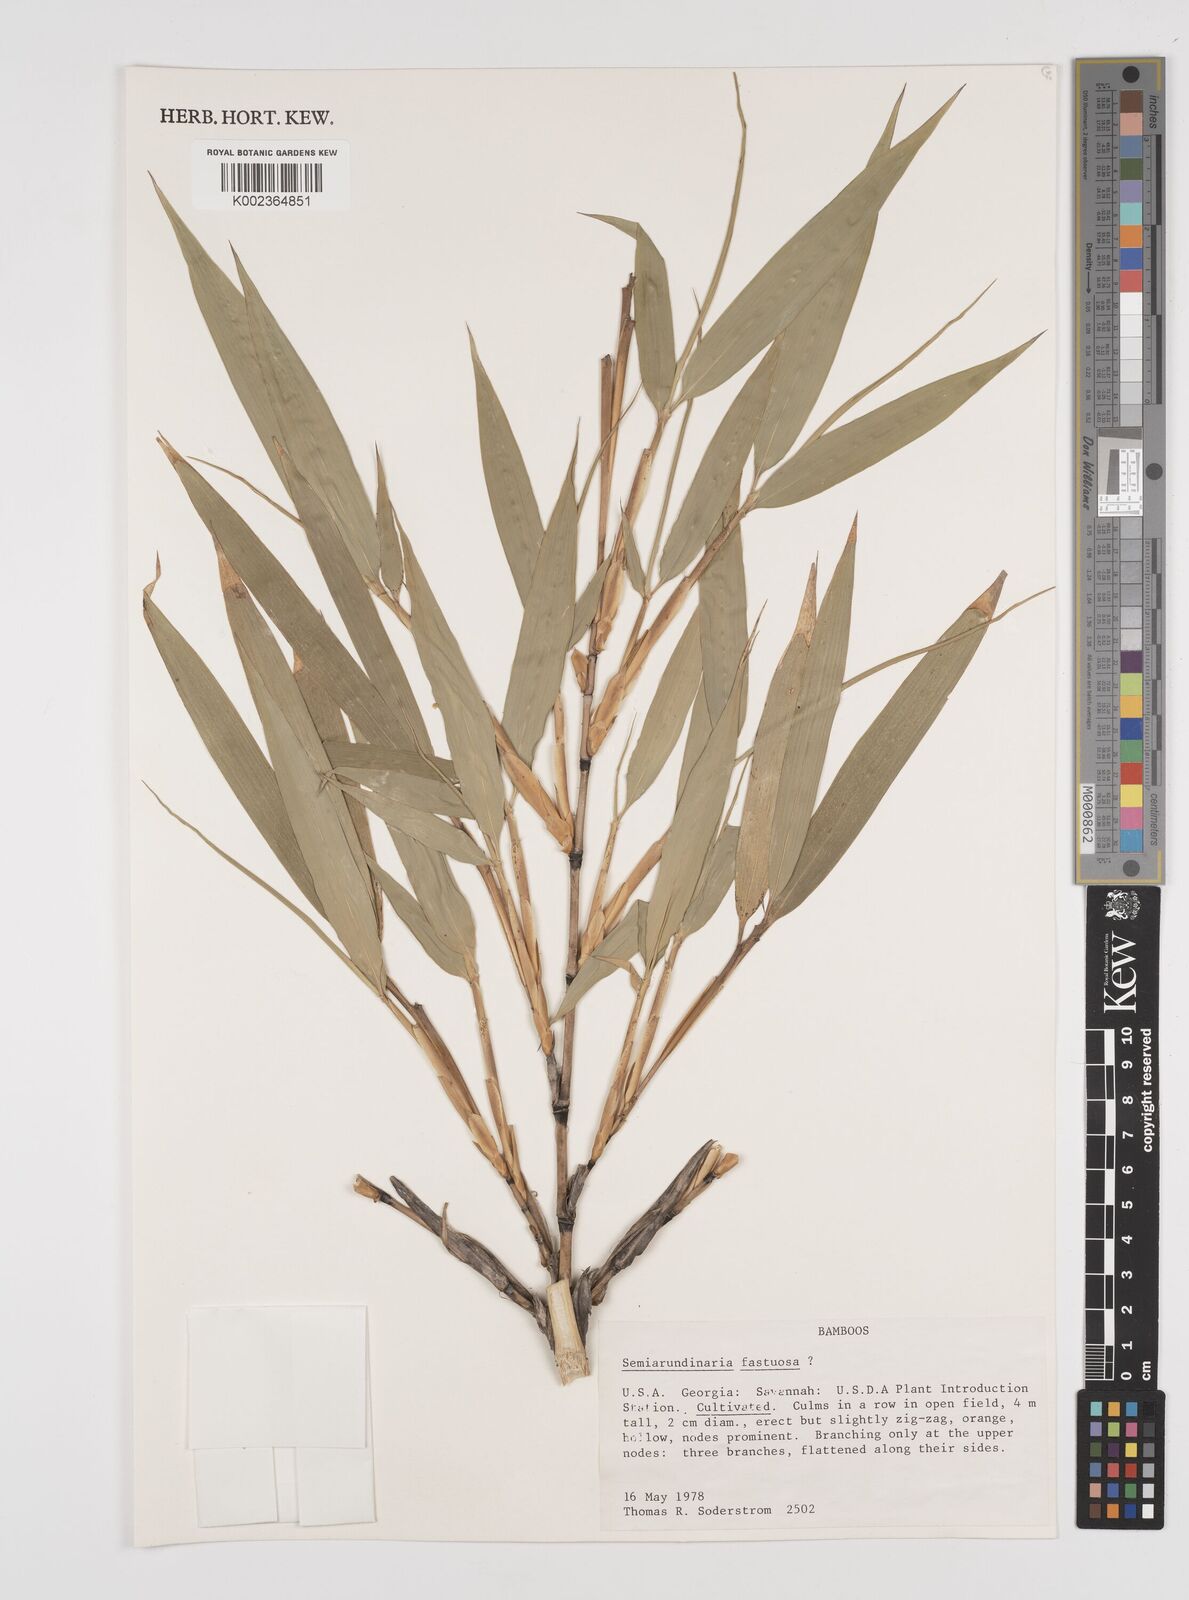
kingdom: Plantae
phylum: Tracheophyta
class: Liliopsida
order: Poales
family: Poaceae
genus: Semiarundinaria
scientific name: Semiarundinaria fastuosa
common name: Narihira bamboo
